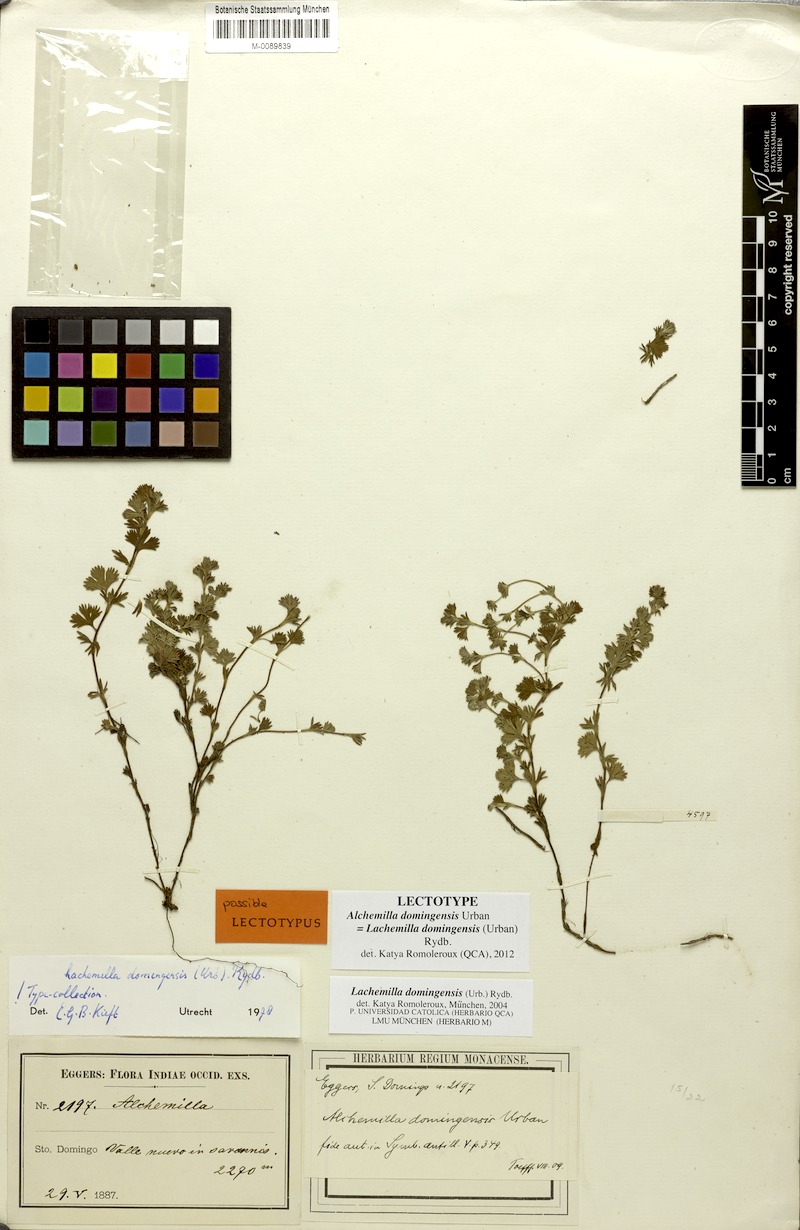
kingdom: Plantae
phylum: Tracheophyta
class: Magnoliopsida
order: Rosales
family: Rosaceae
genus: Lachemilla
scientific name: Lachemilla domingensis
